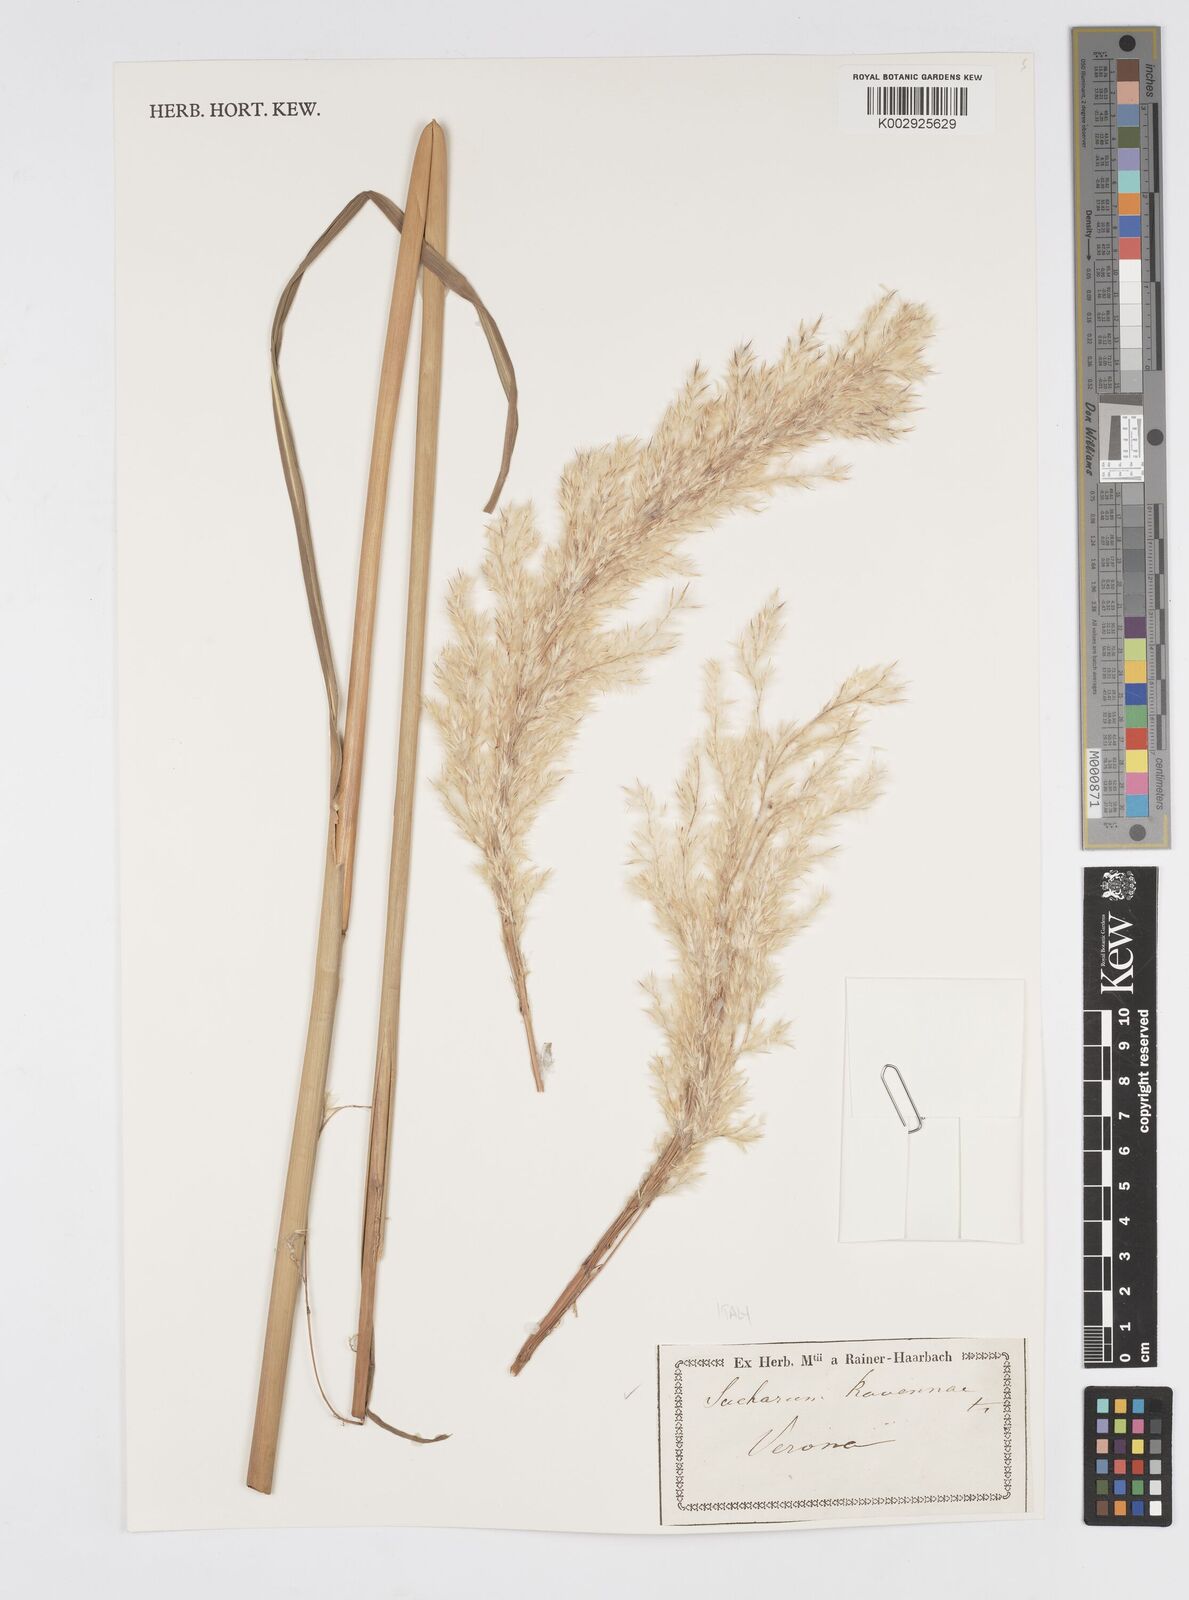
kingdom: Plantae
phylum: Tracheophyta
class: Liliopsida
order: Poales
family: Poaceae
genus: Tripidium
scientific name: Tripidium ravennae
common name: Ravenna grass
